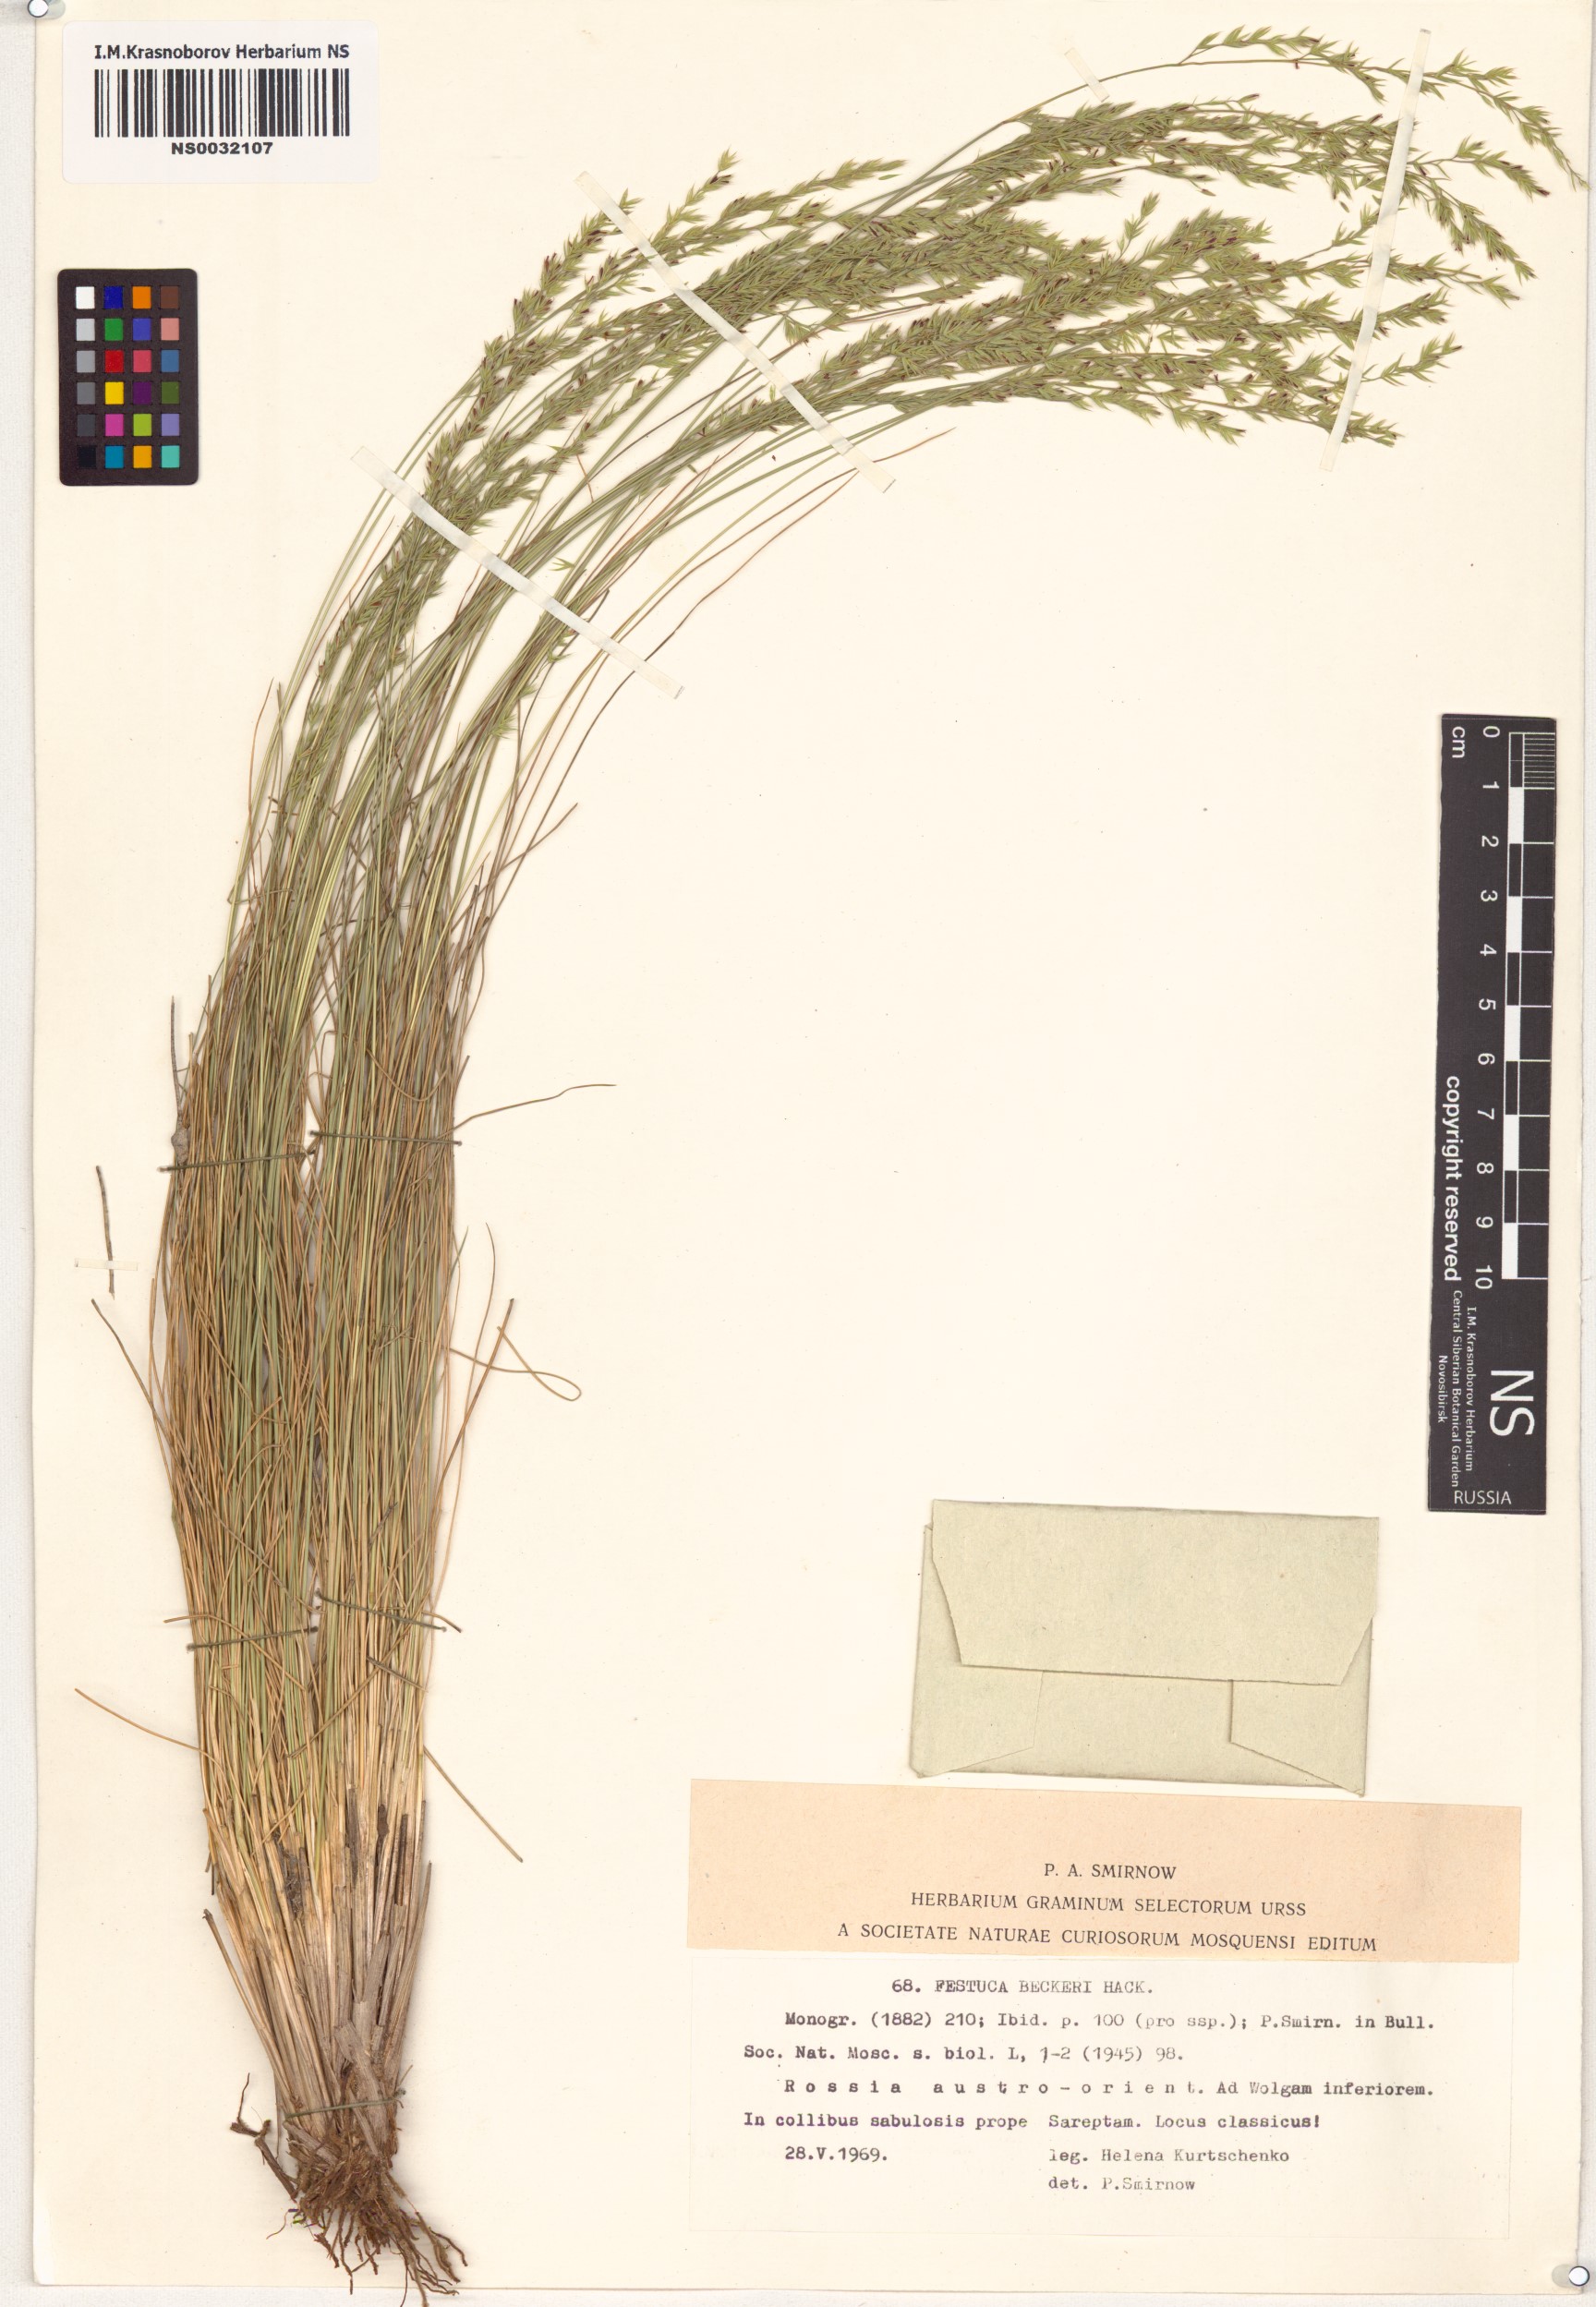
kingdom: Plantae
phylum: Tracheophyta
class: Liliopsida
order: Poales
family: Poaceae
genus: Festuca
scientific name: Festuca beckeri
